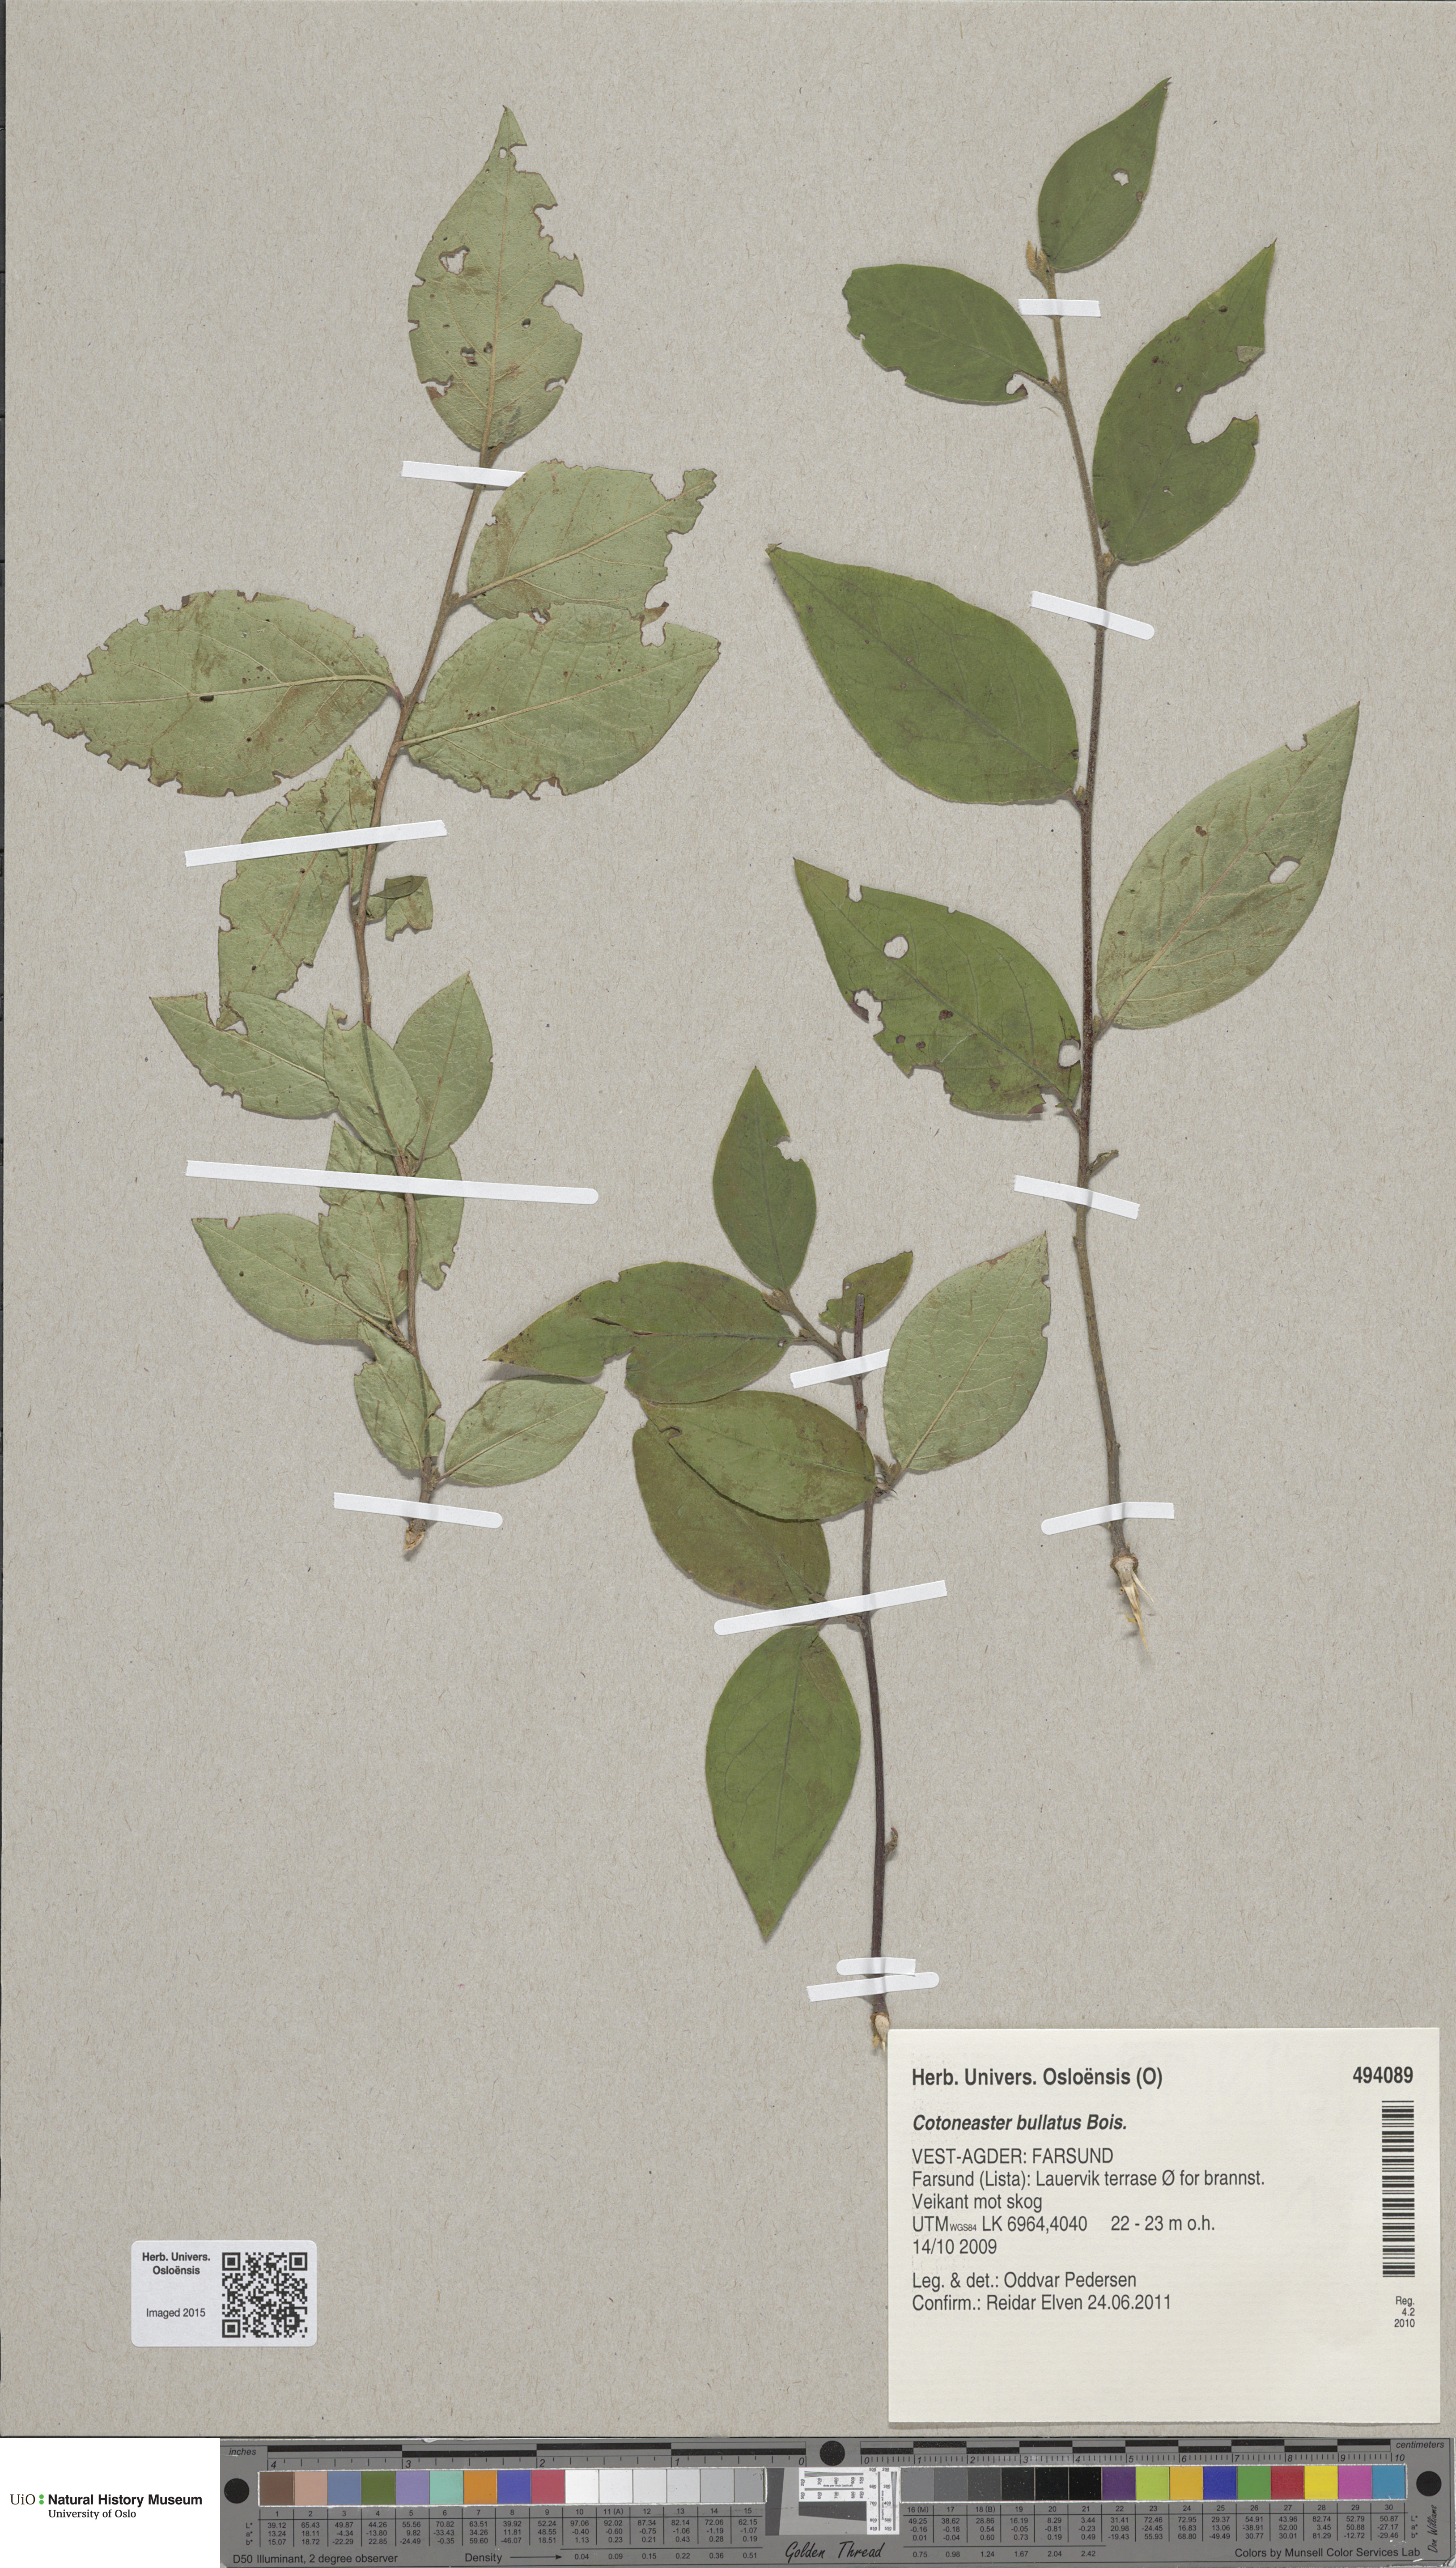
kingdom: Plantae
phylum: Tracheophyta
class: Magnoliopsida
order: Rosales
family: Rosaceae
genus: Cotoneaster
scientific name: Cotoneaster bullatus
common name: Hollyberry cotoneaster
